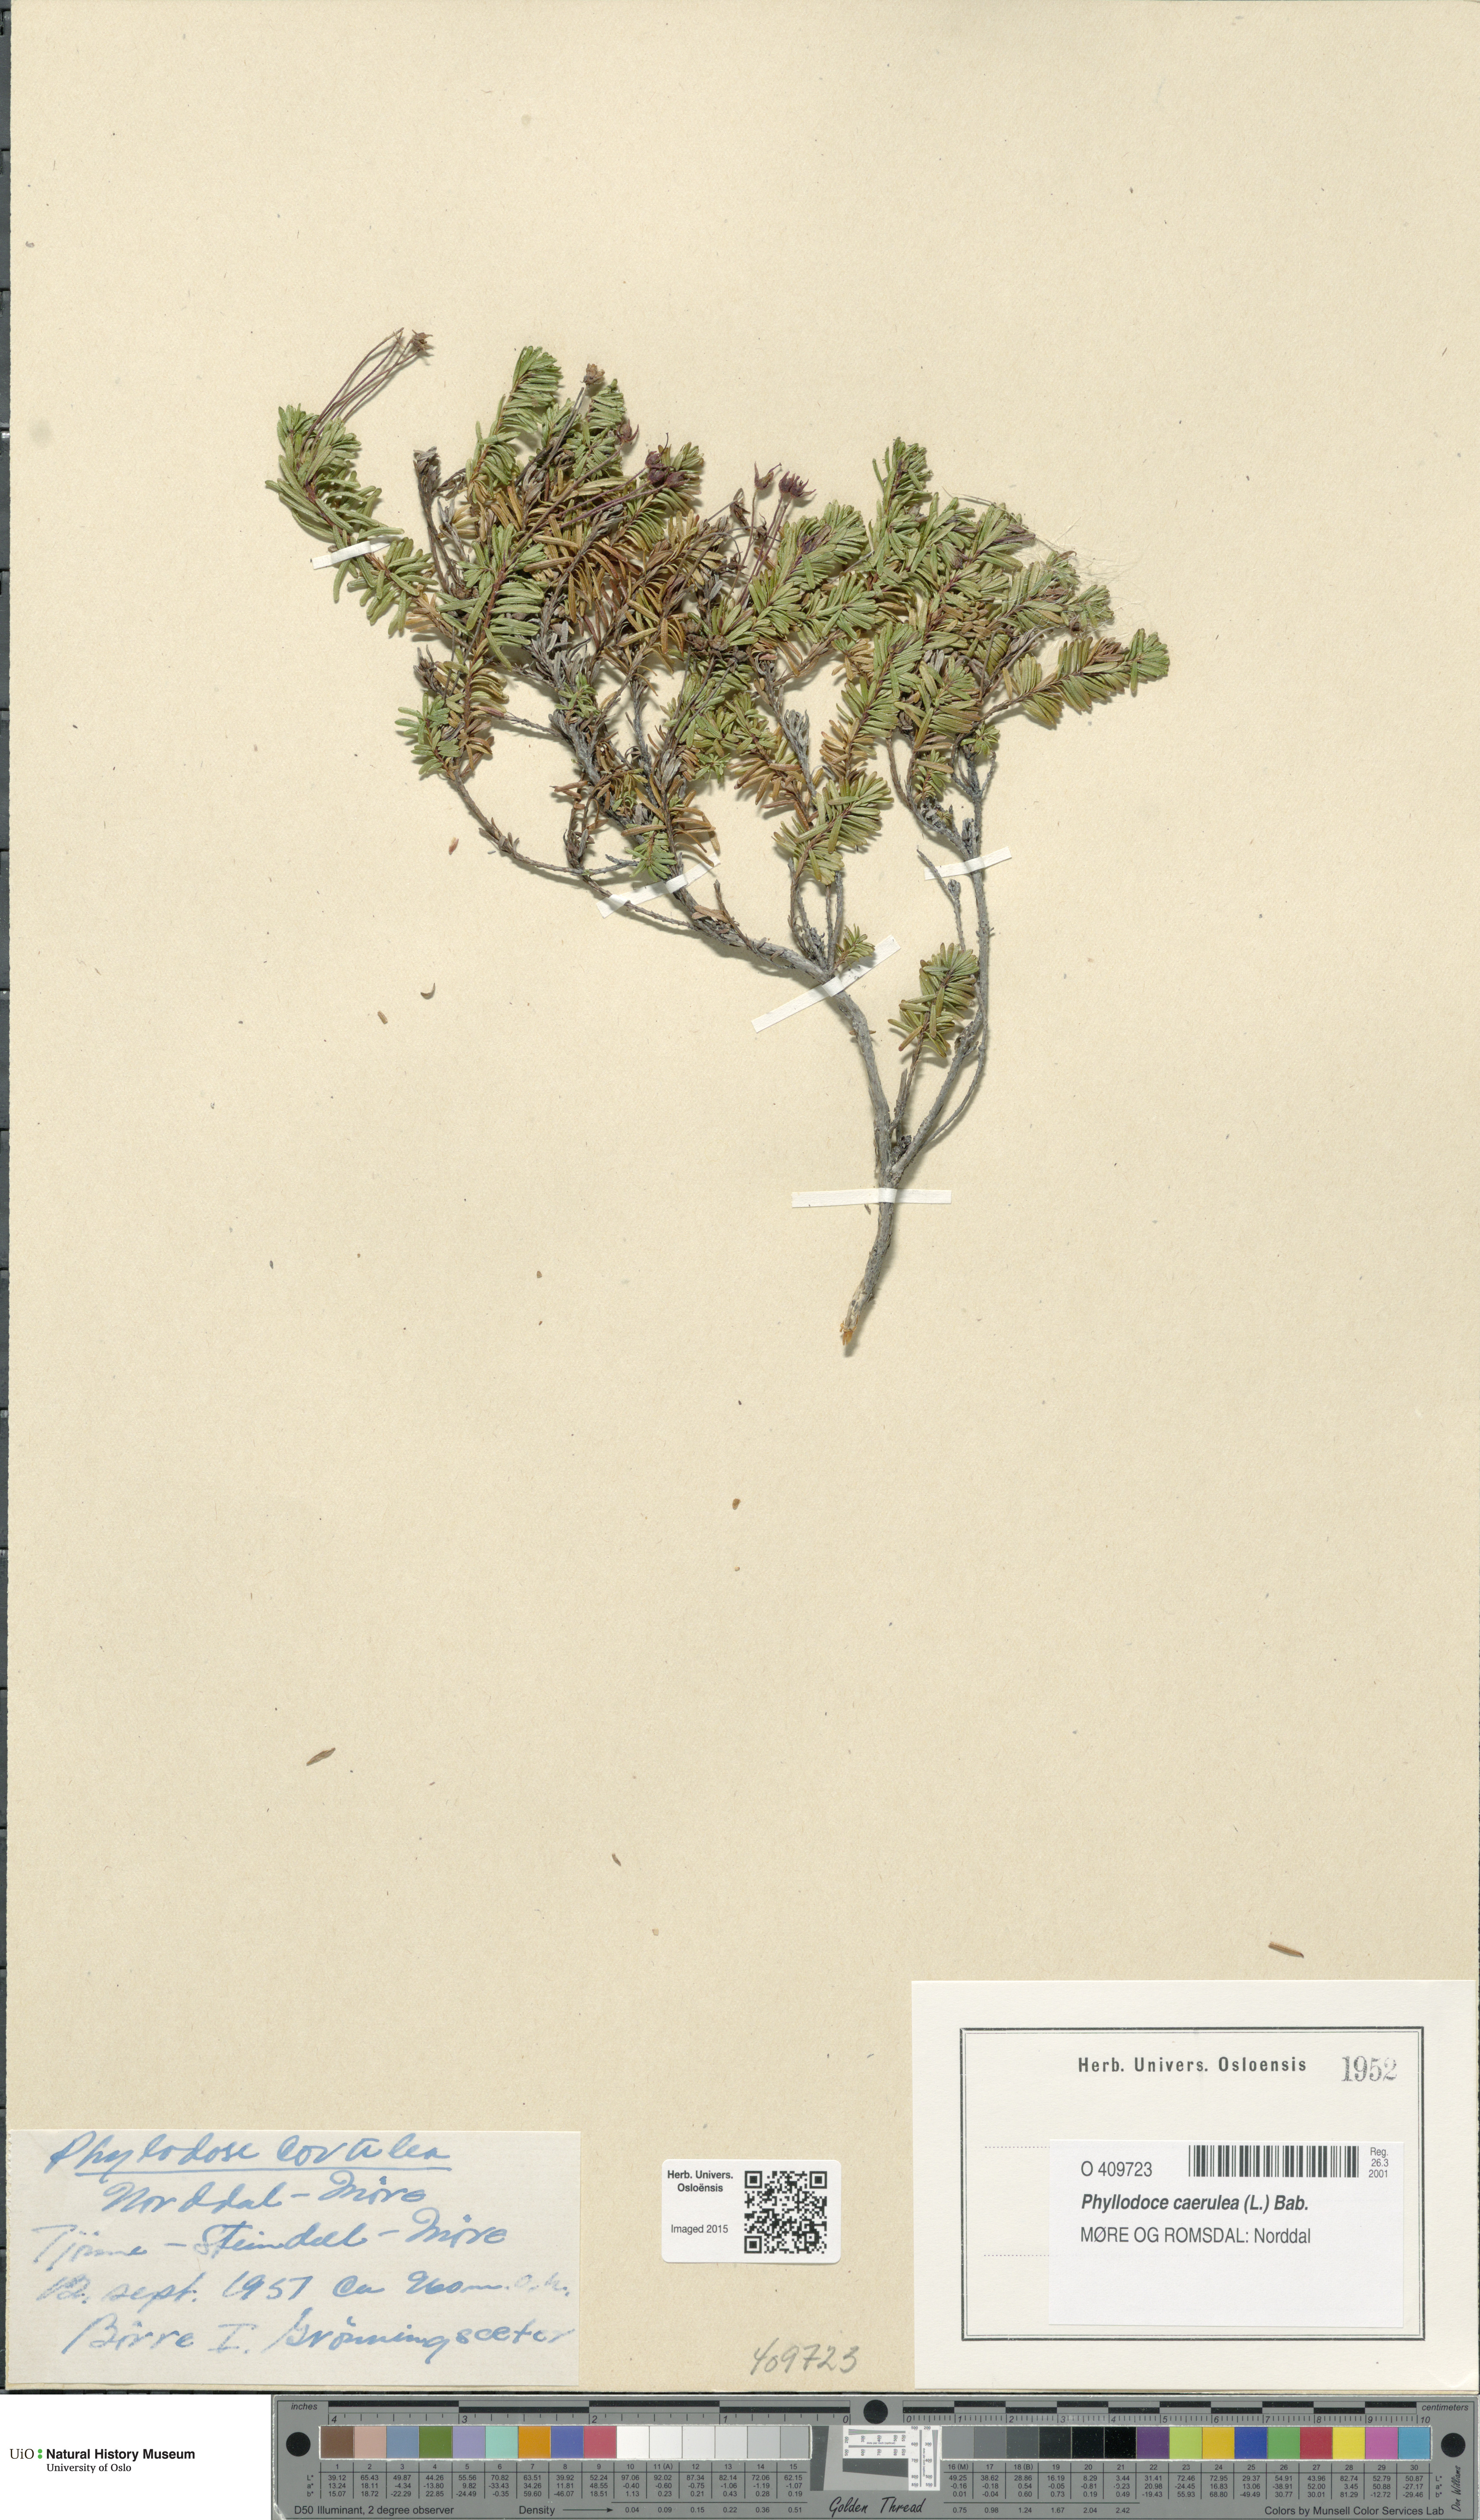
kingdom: Plantae
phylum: Tracheophyta
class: Magnoliopsida
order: Ericales
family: Ericaceae
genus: Phyllodoce
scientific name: Phyllodoce caerulea
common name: Blue heath
